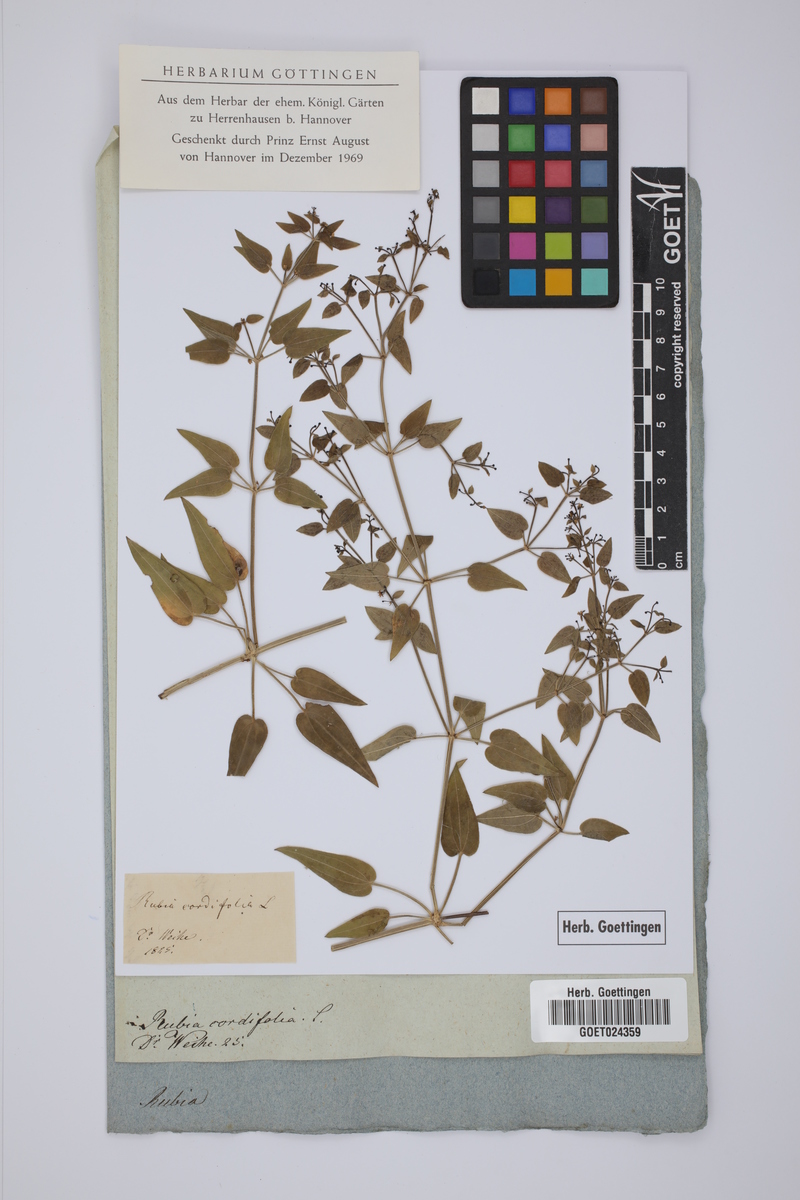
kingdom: Plantae
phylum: Tracheophyta
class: Magnoliopsida
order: Gentianales
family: Rubiaceae
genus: Rubia
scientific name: Rubia cordifolia
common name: Indian madder
